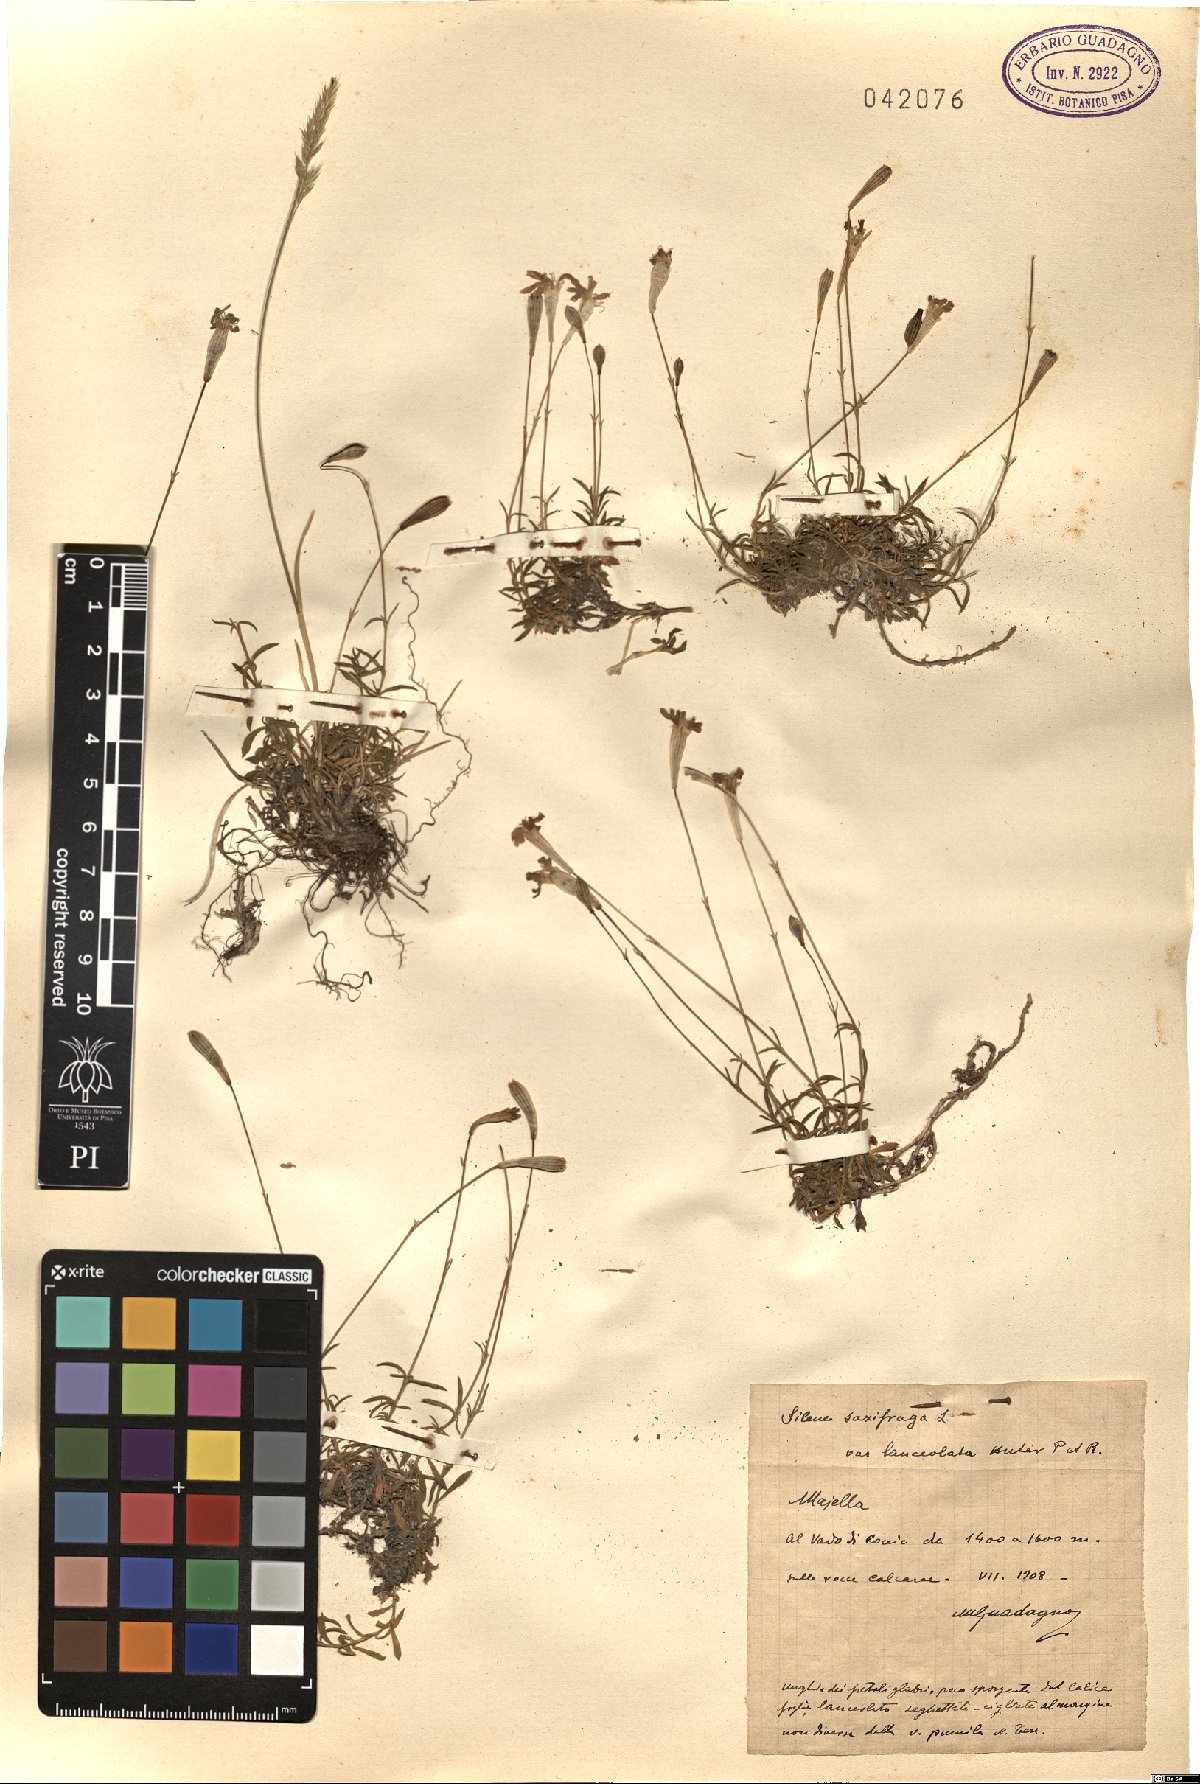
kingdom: Plantae
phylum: Tracheophyta
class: Magnoliopsida
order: Caryophyllales
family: Caryophyllaceae
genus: Silene
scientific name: Silene saxifraga
